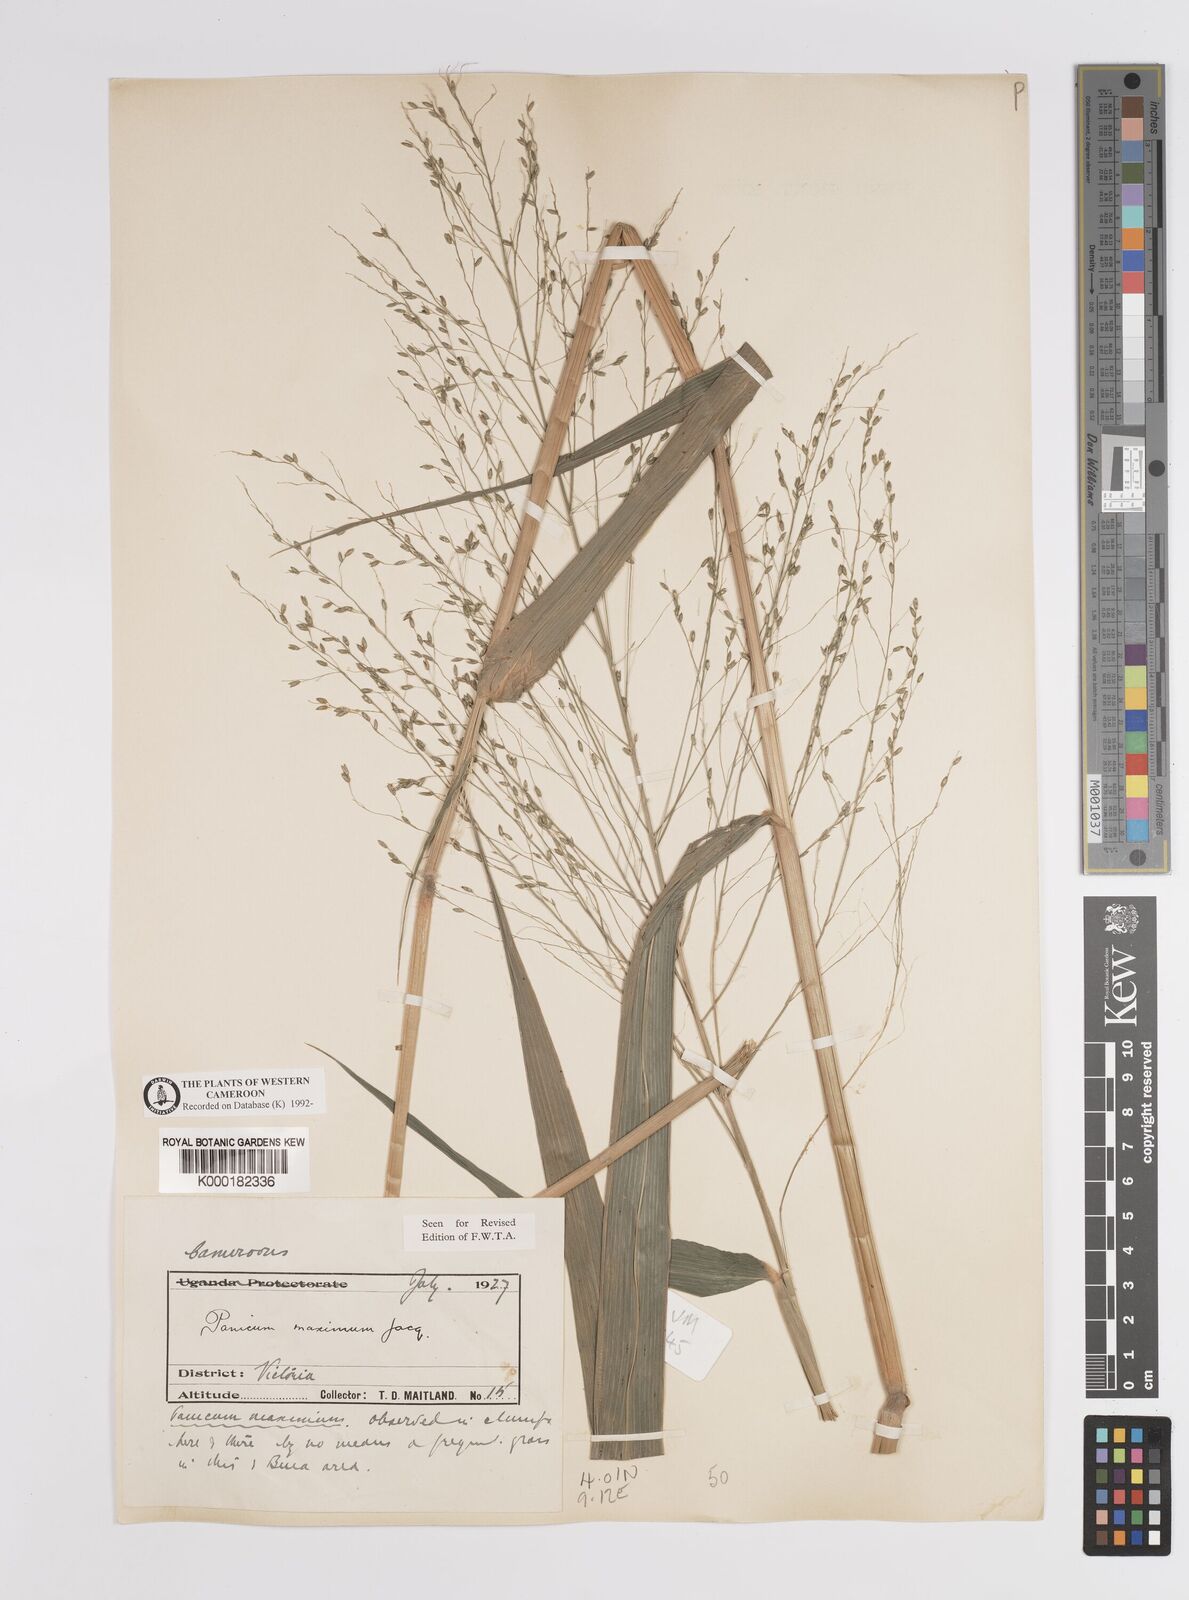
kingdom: Plantae
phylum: Tracheophyta
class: Liliopsida
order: Poales
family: Poaceae
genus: Megathyrsus
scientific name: Megathyrsus maximus
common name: Guineagrass
